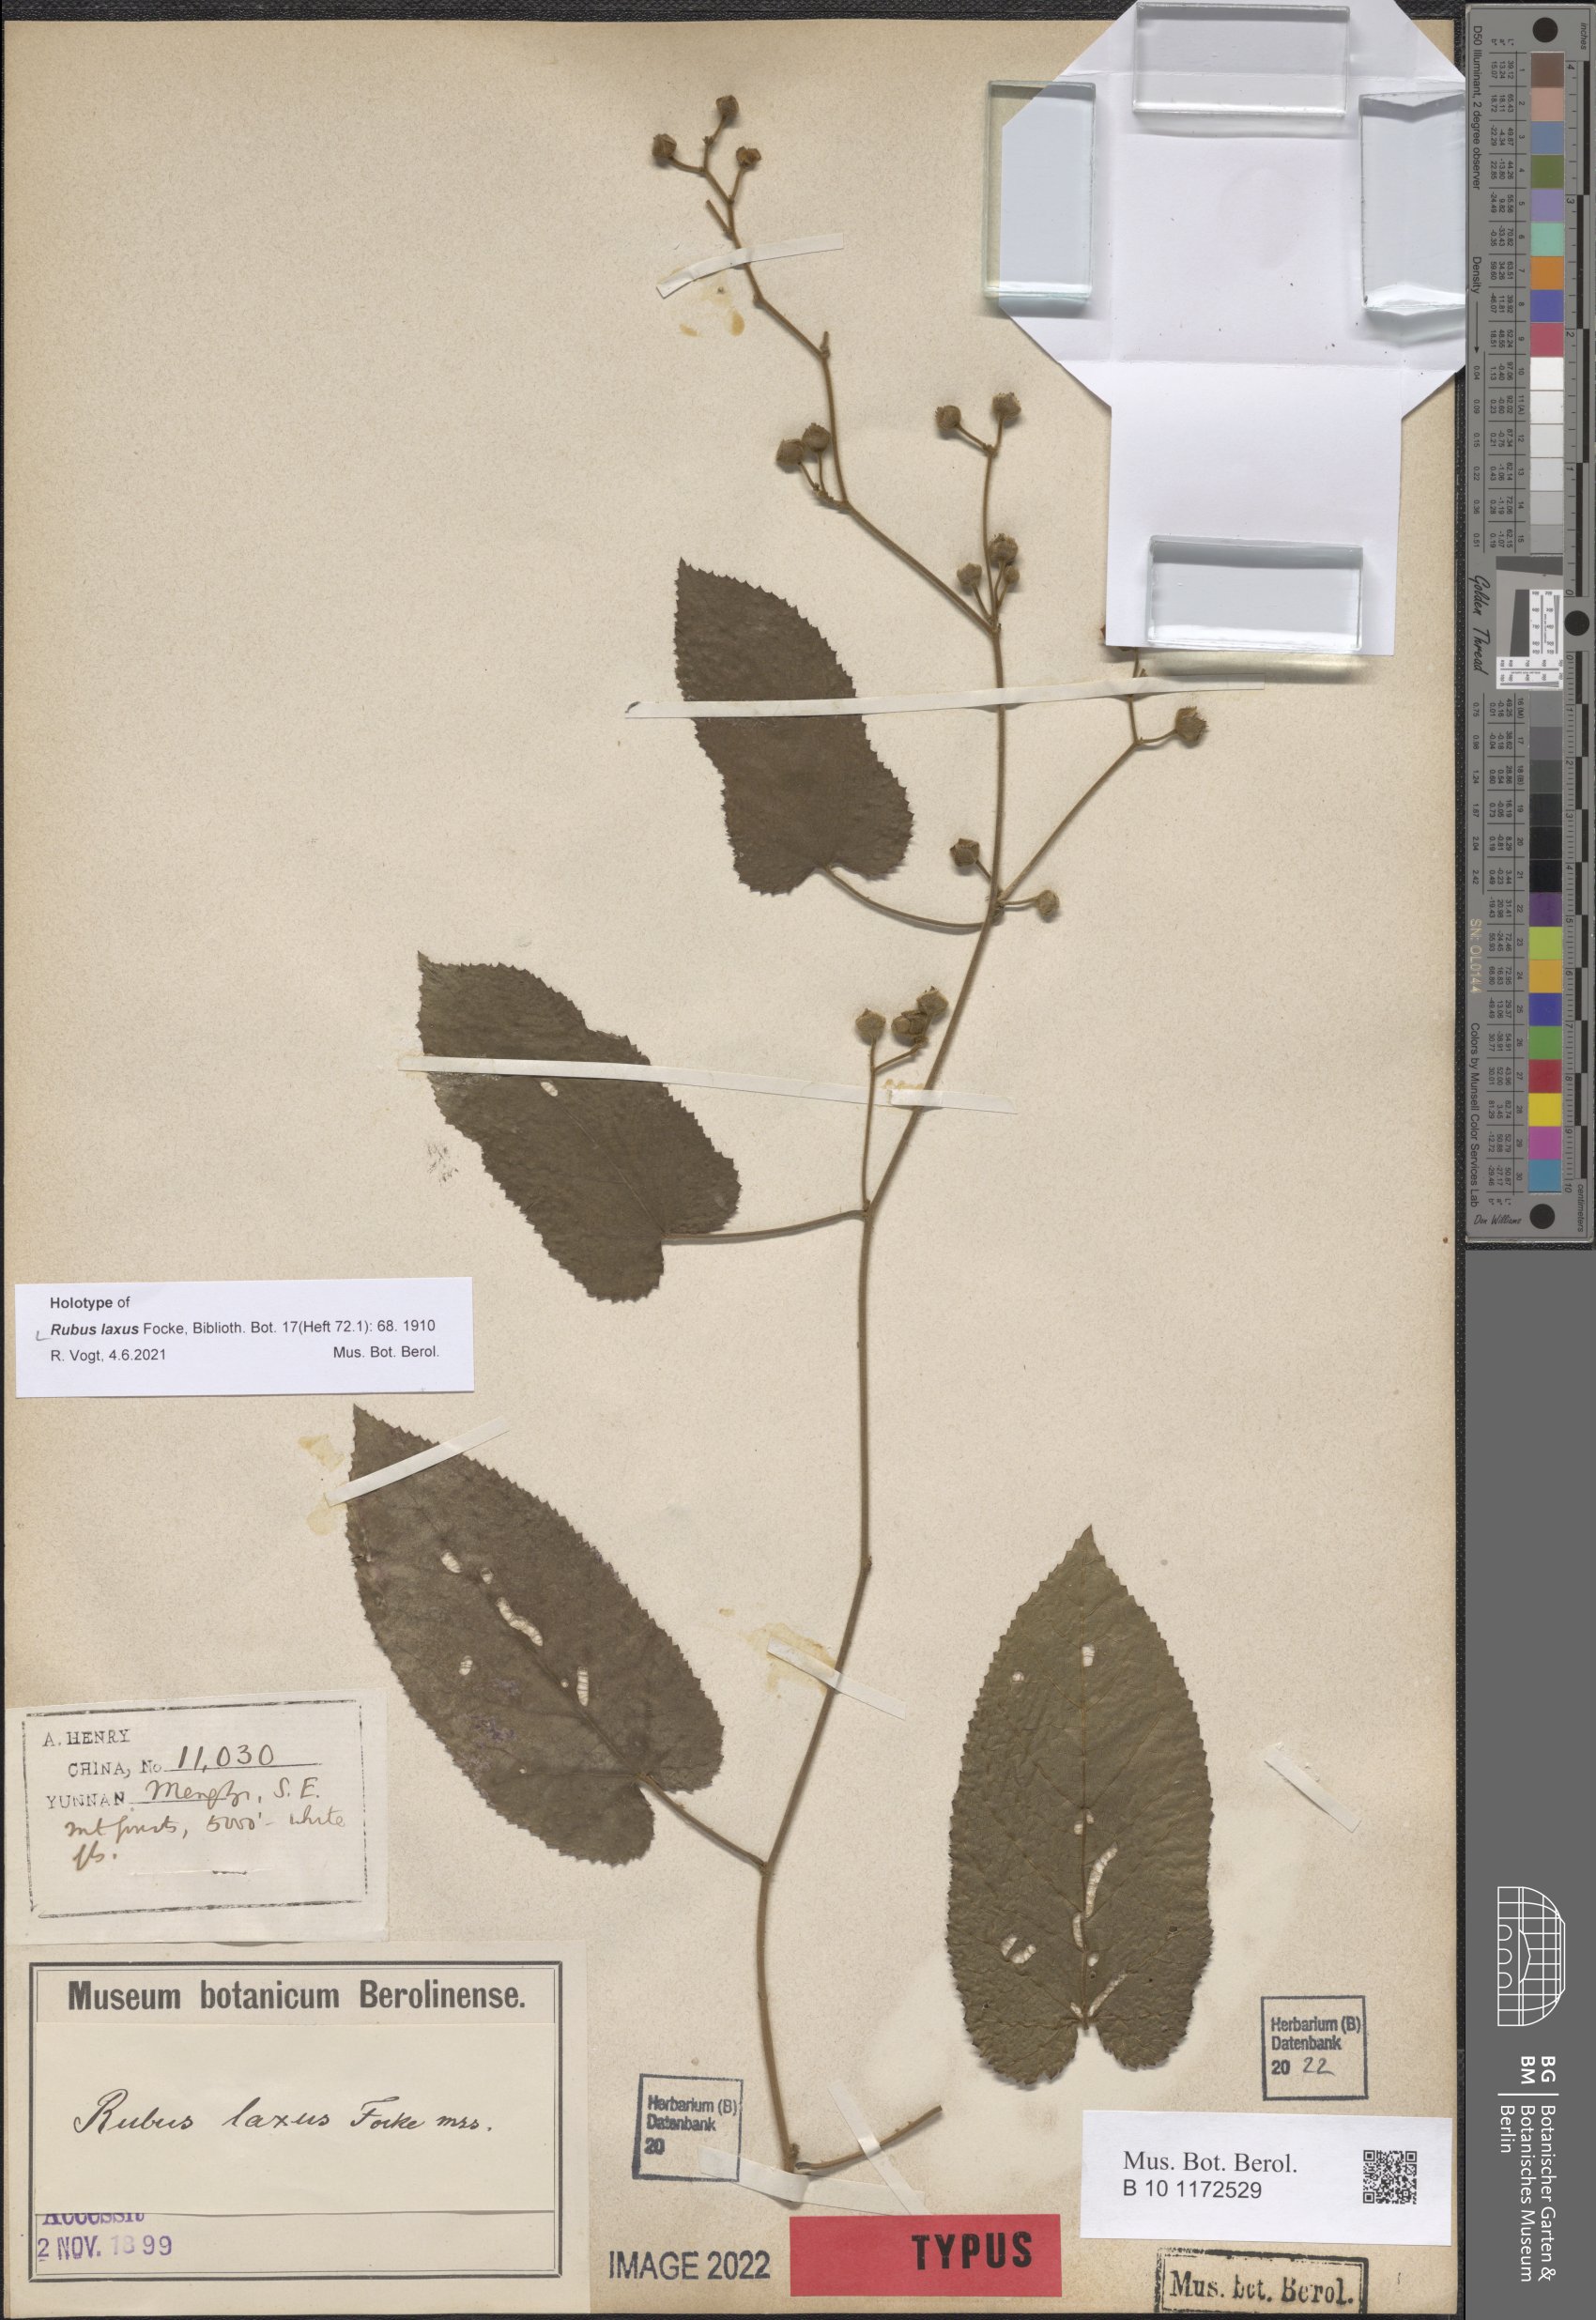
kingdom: Plantae
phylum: Tracheophyta
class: Magnoliopsida
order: Rosales
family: Rosaceae
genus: Rubus
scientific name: Rubus efferatus
